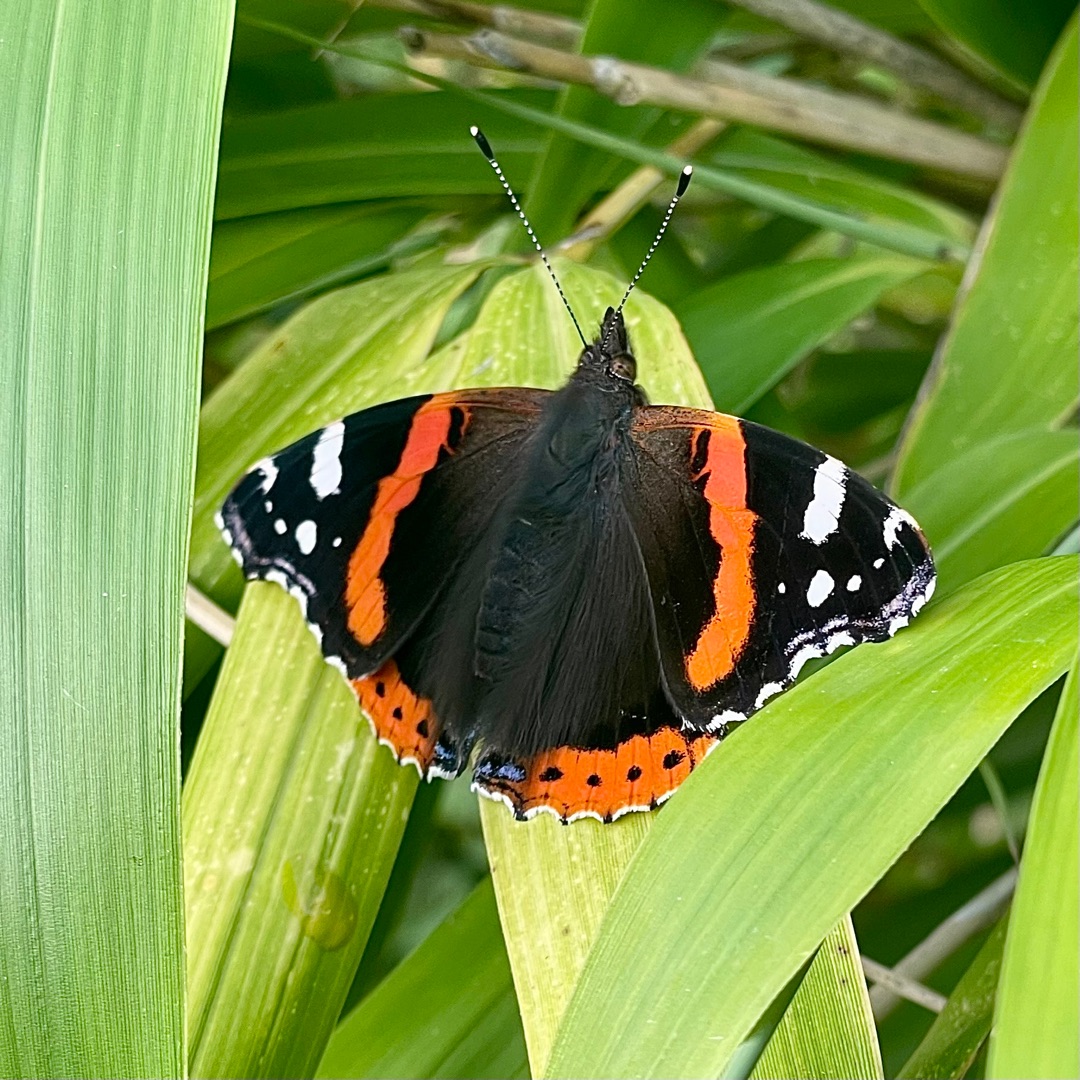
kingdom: Animalia
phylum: Arthropoda
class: Insecta
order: Lepidoptera
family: Nymphalidae
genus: Vanessa
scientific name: Vanessa atalanta
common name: Admiral
